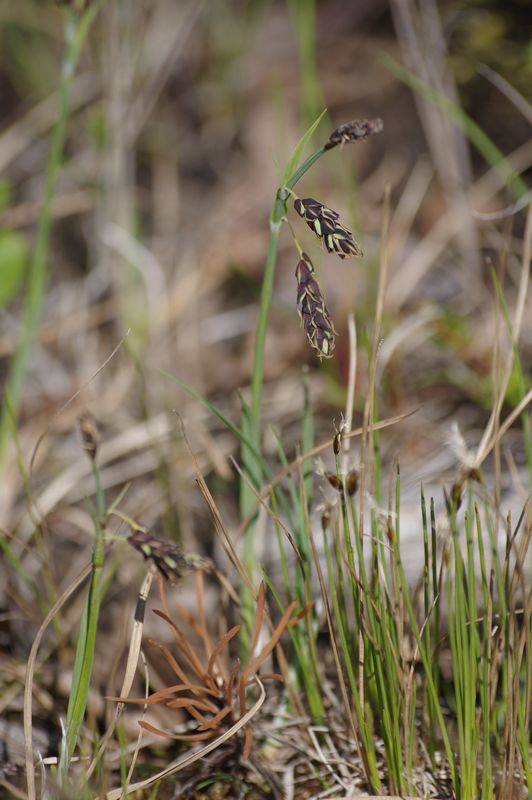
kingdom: Plantae
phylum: Tracheophyta
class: Liliopsida
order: Poales
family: Cyperaceae
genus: Carex
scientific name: Carex rariflora
